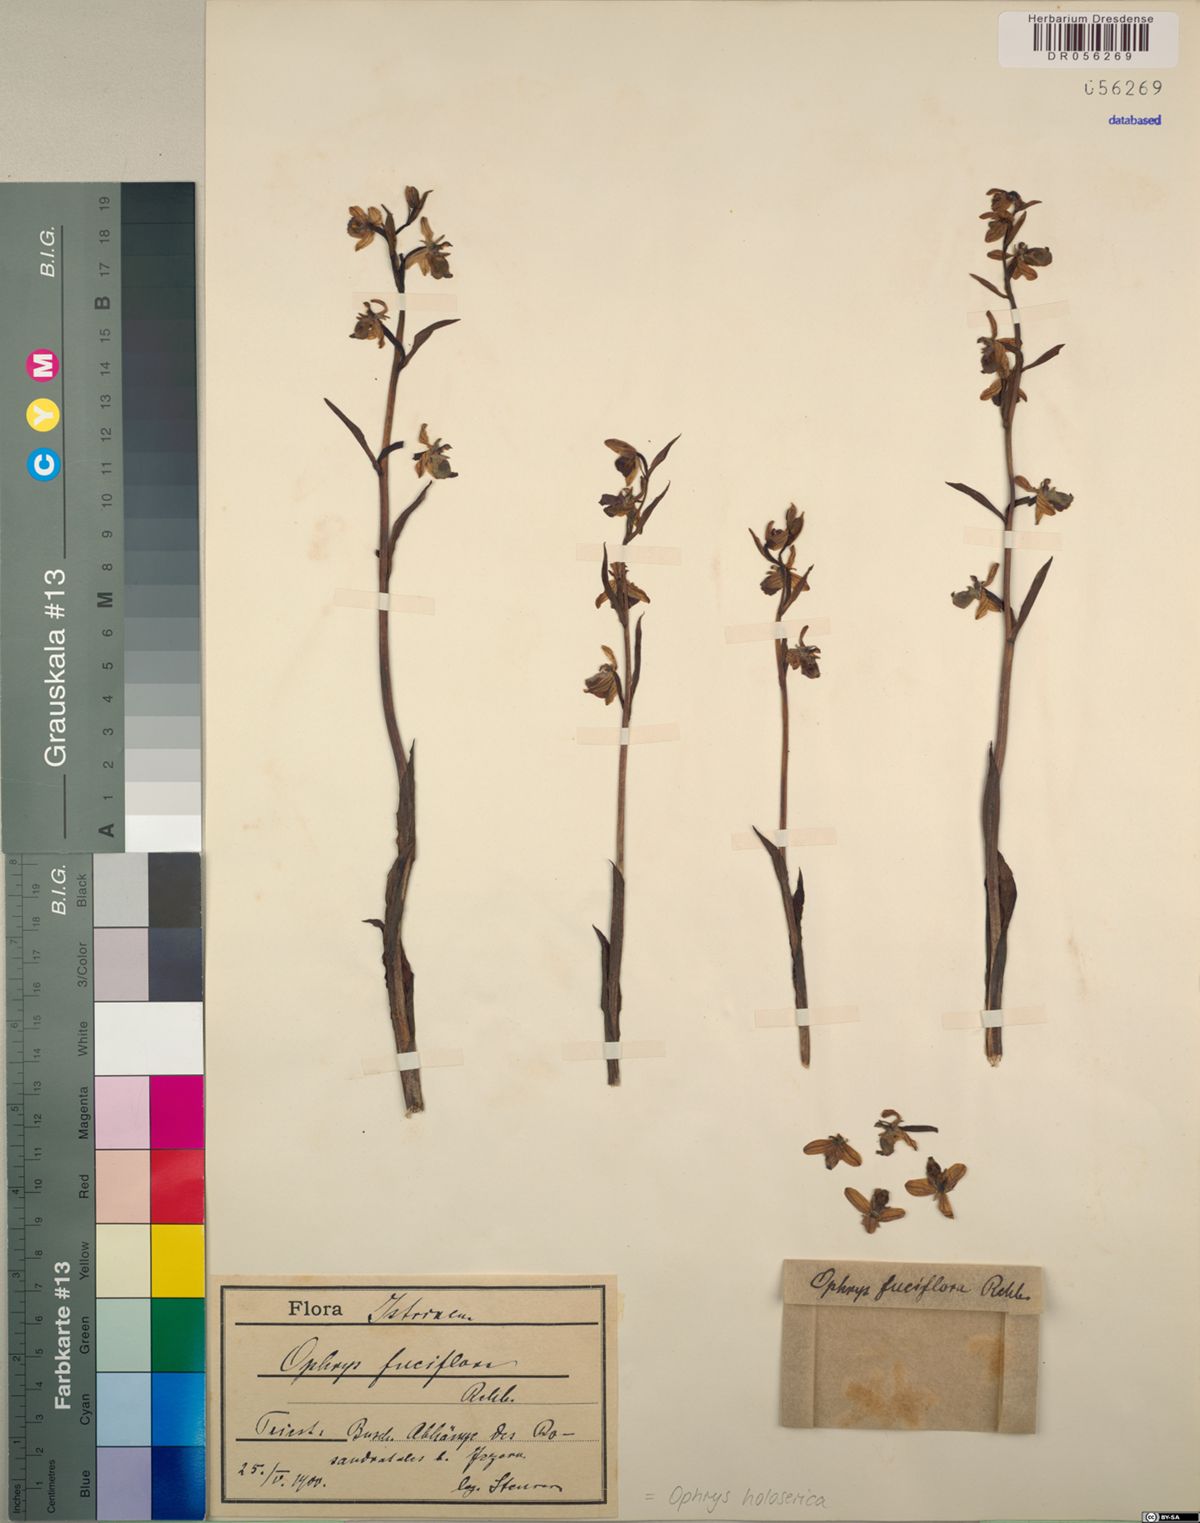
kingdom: Plantae
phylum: Tracheophyta
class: Liliopsida
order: Asparagales
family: Orchidaceae
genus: Ophrys
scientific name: Ophrys holosericea
